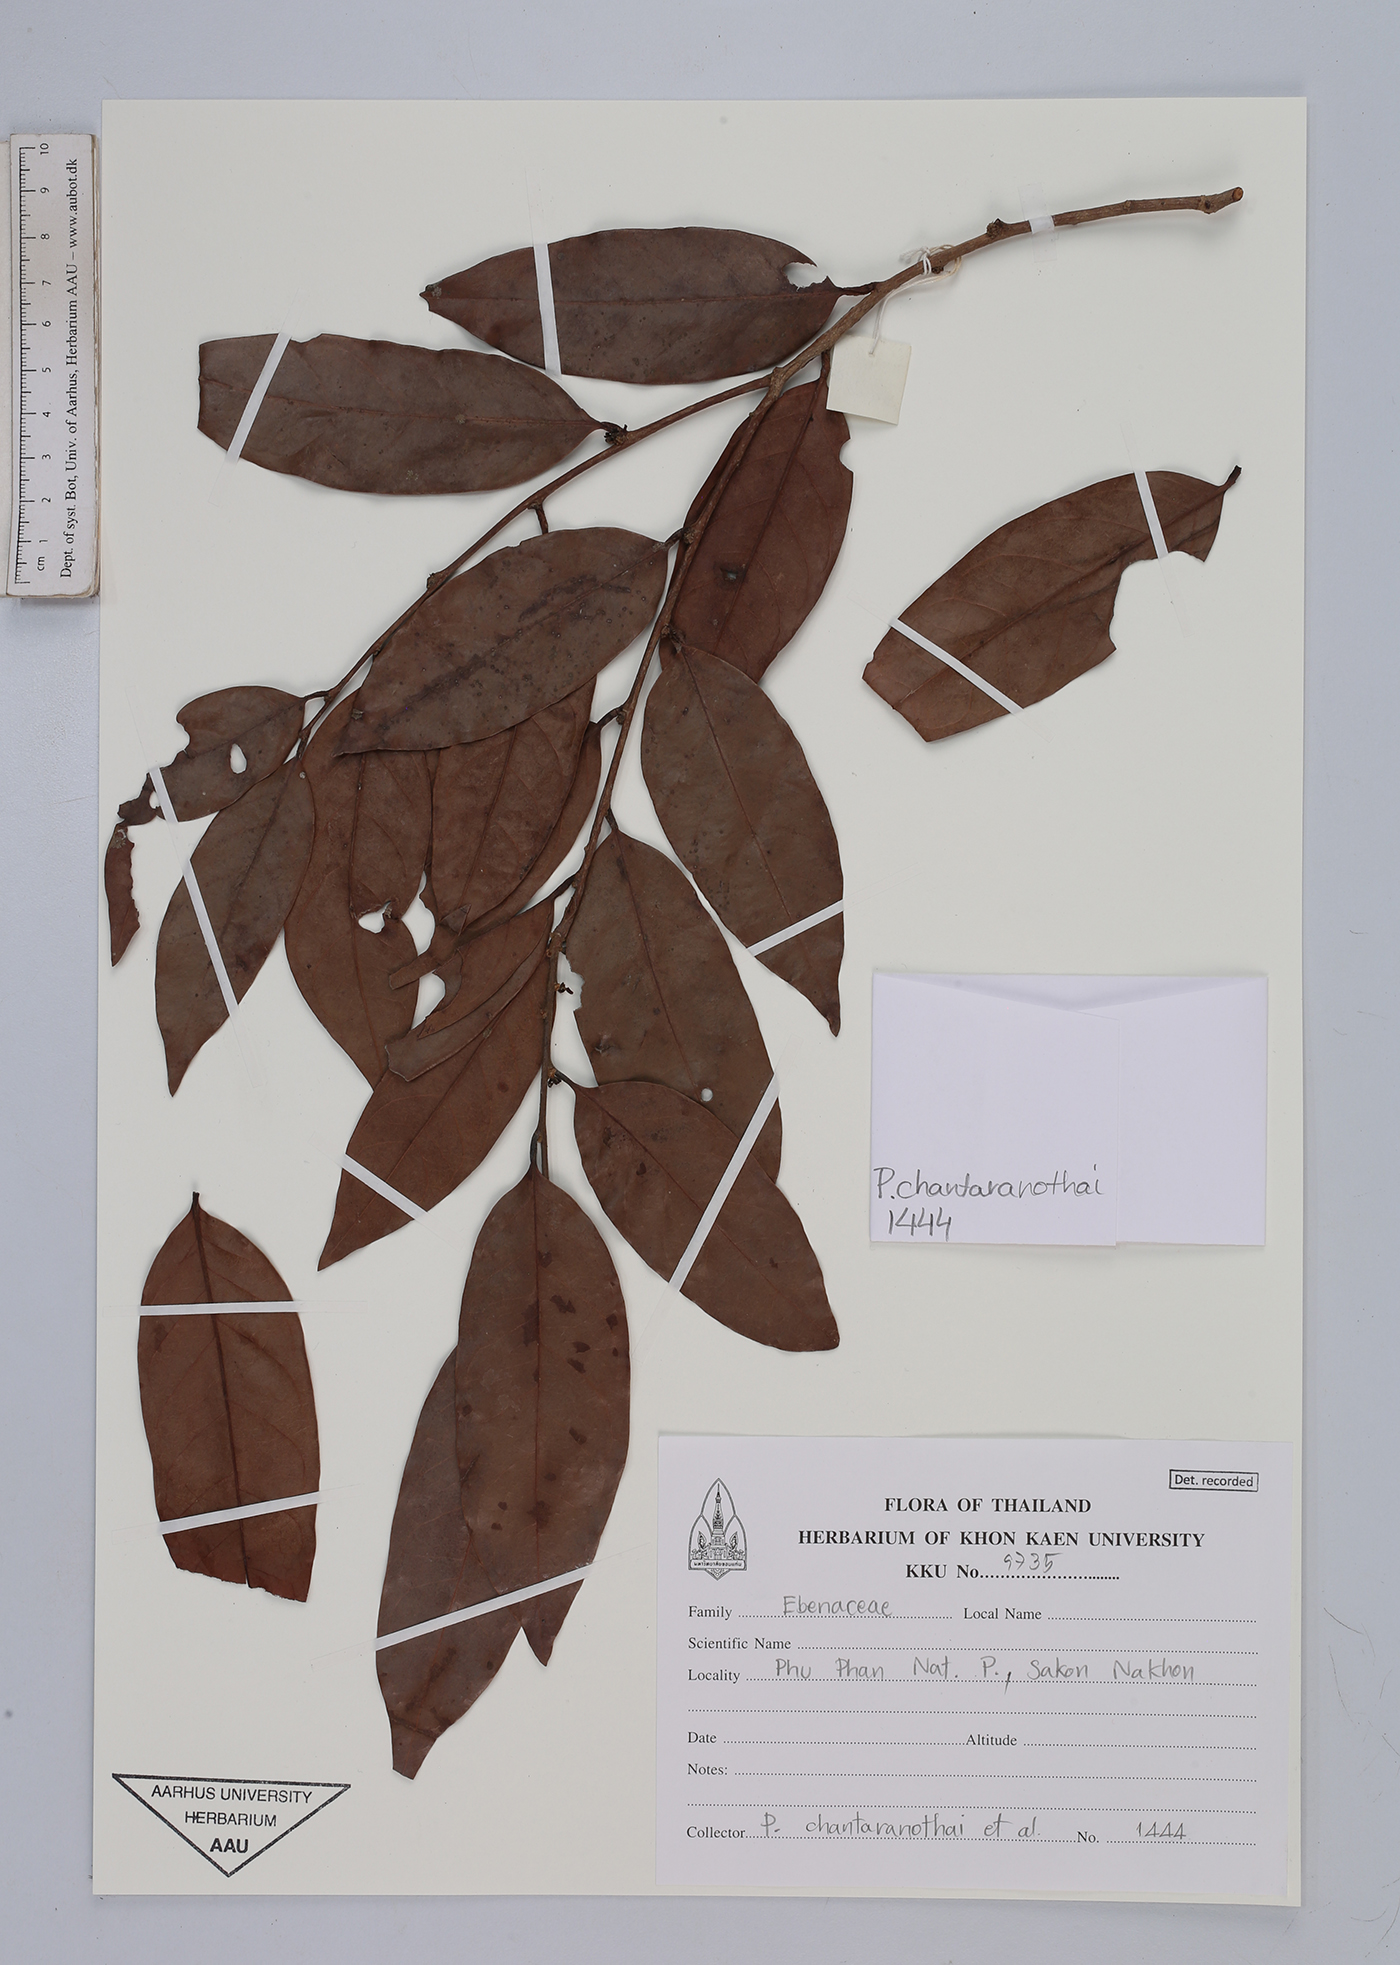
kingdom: Plantae
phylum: Tracheophyta
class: Magnoliopsida
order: Ericales
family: Ebenaceae
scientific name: Ebenaceae
